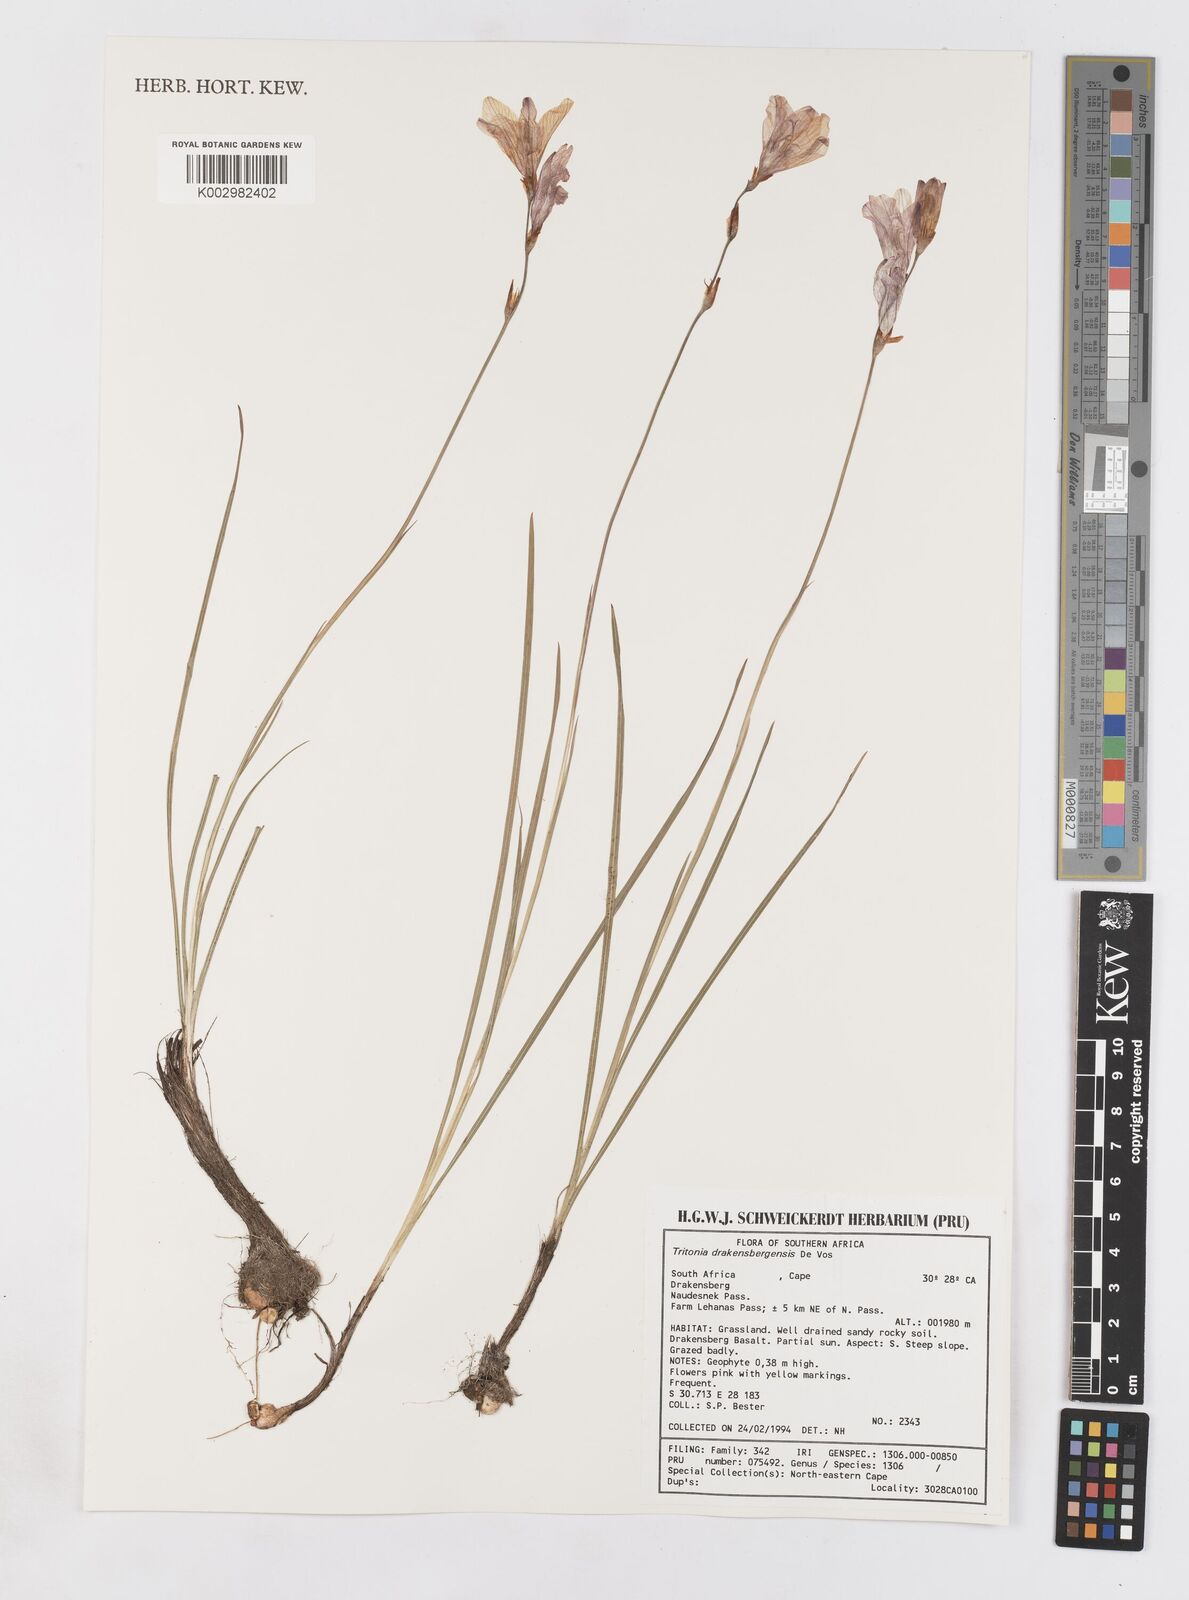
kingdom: Plantae
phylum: Tracheophyta
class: Liliopsida
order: Asparagales
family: Iridaceae
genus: Tritonia
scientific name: Tritonia drakensbergensis
